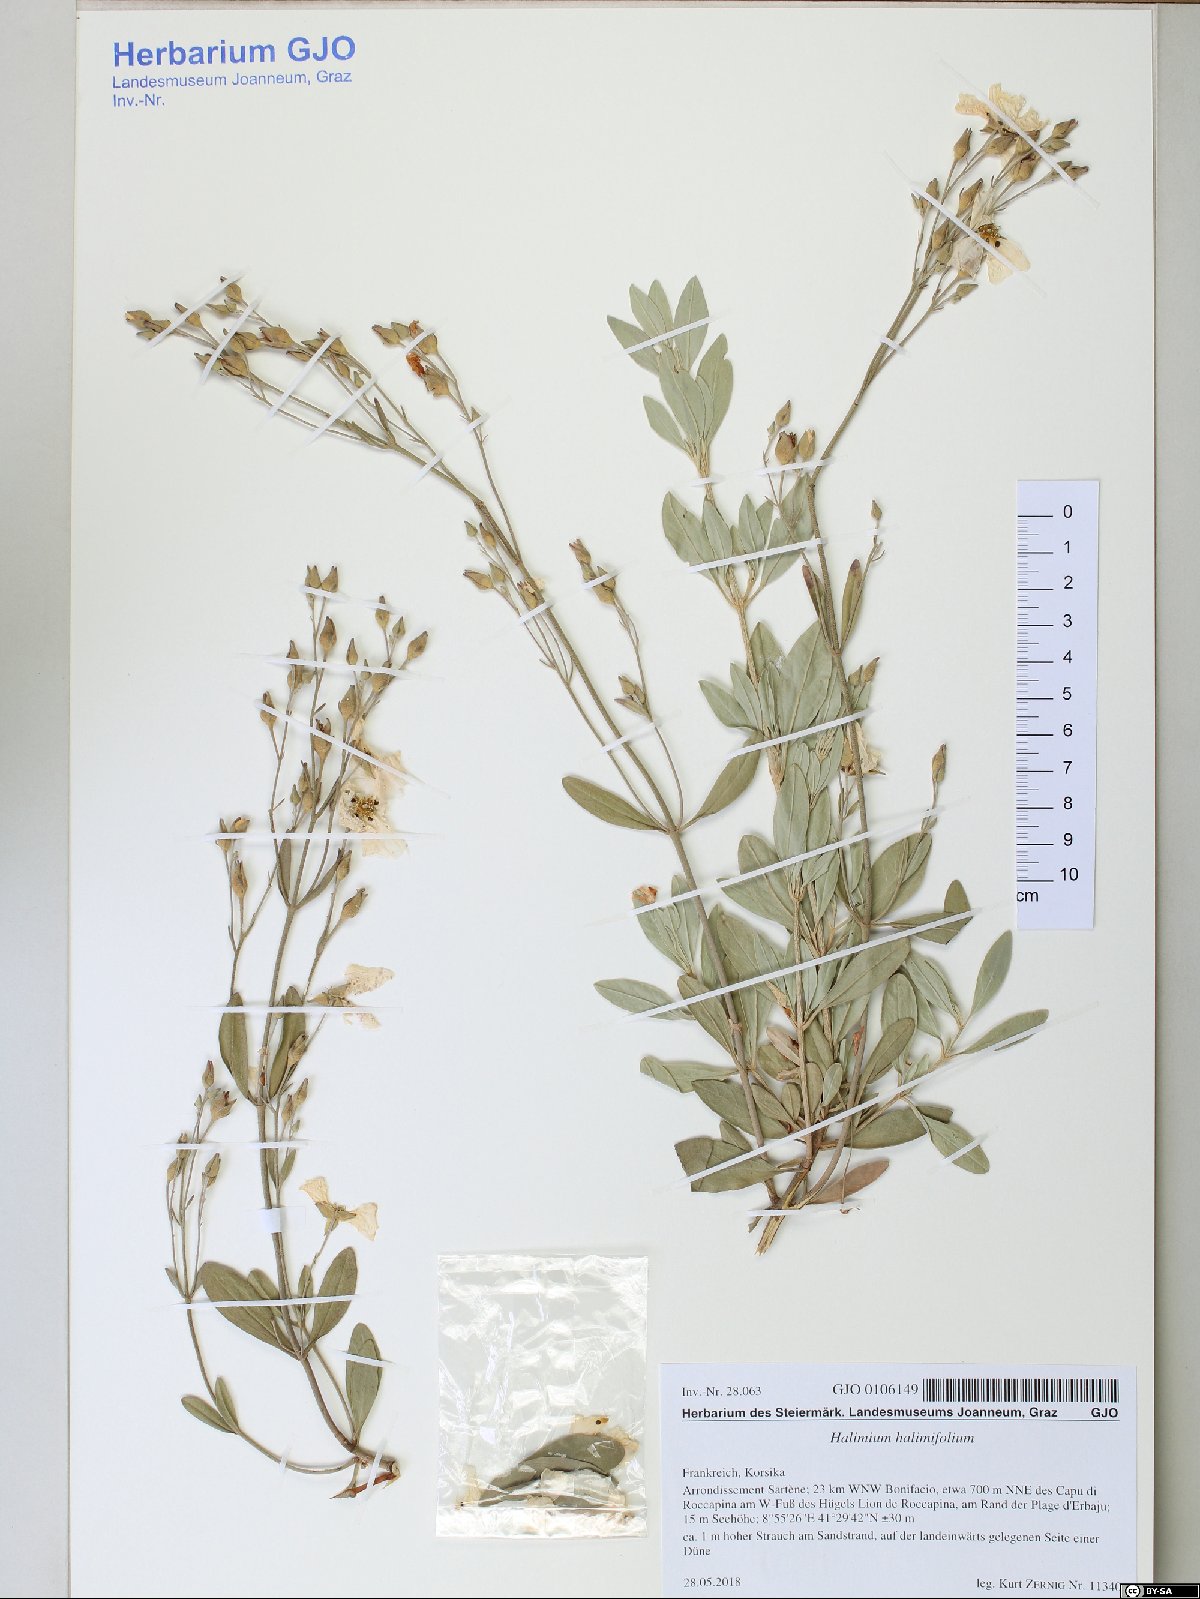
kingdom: Plantae
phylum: Tracheophyta
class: Magnoliopsida
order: Malvales
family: Cistaceae
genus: Halimium
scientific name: Halimium halimifolium
